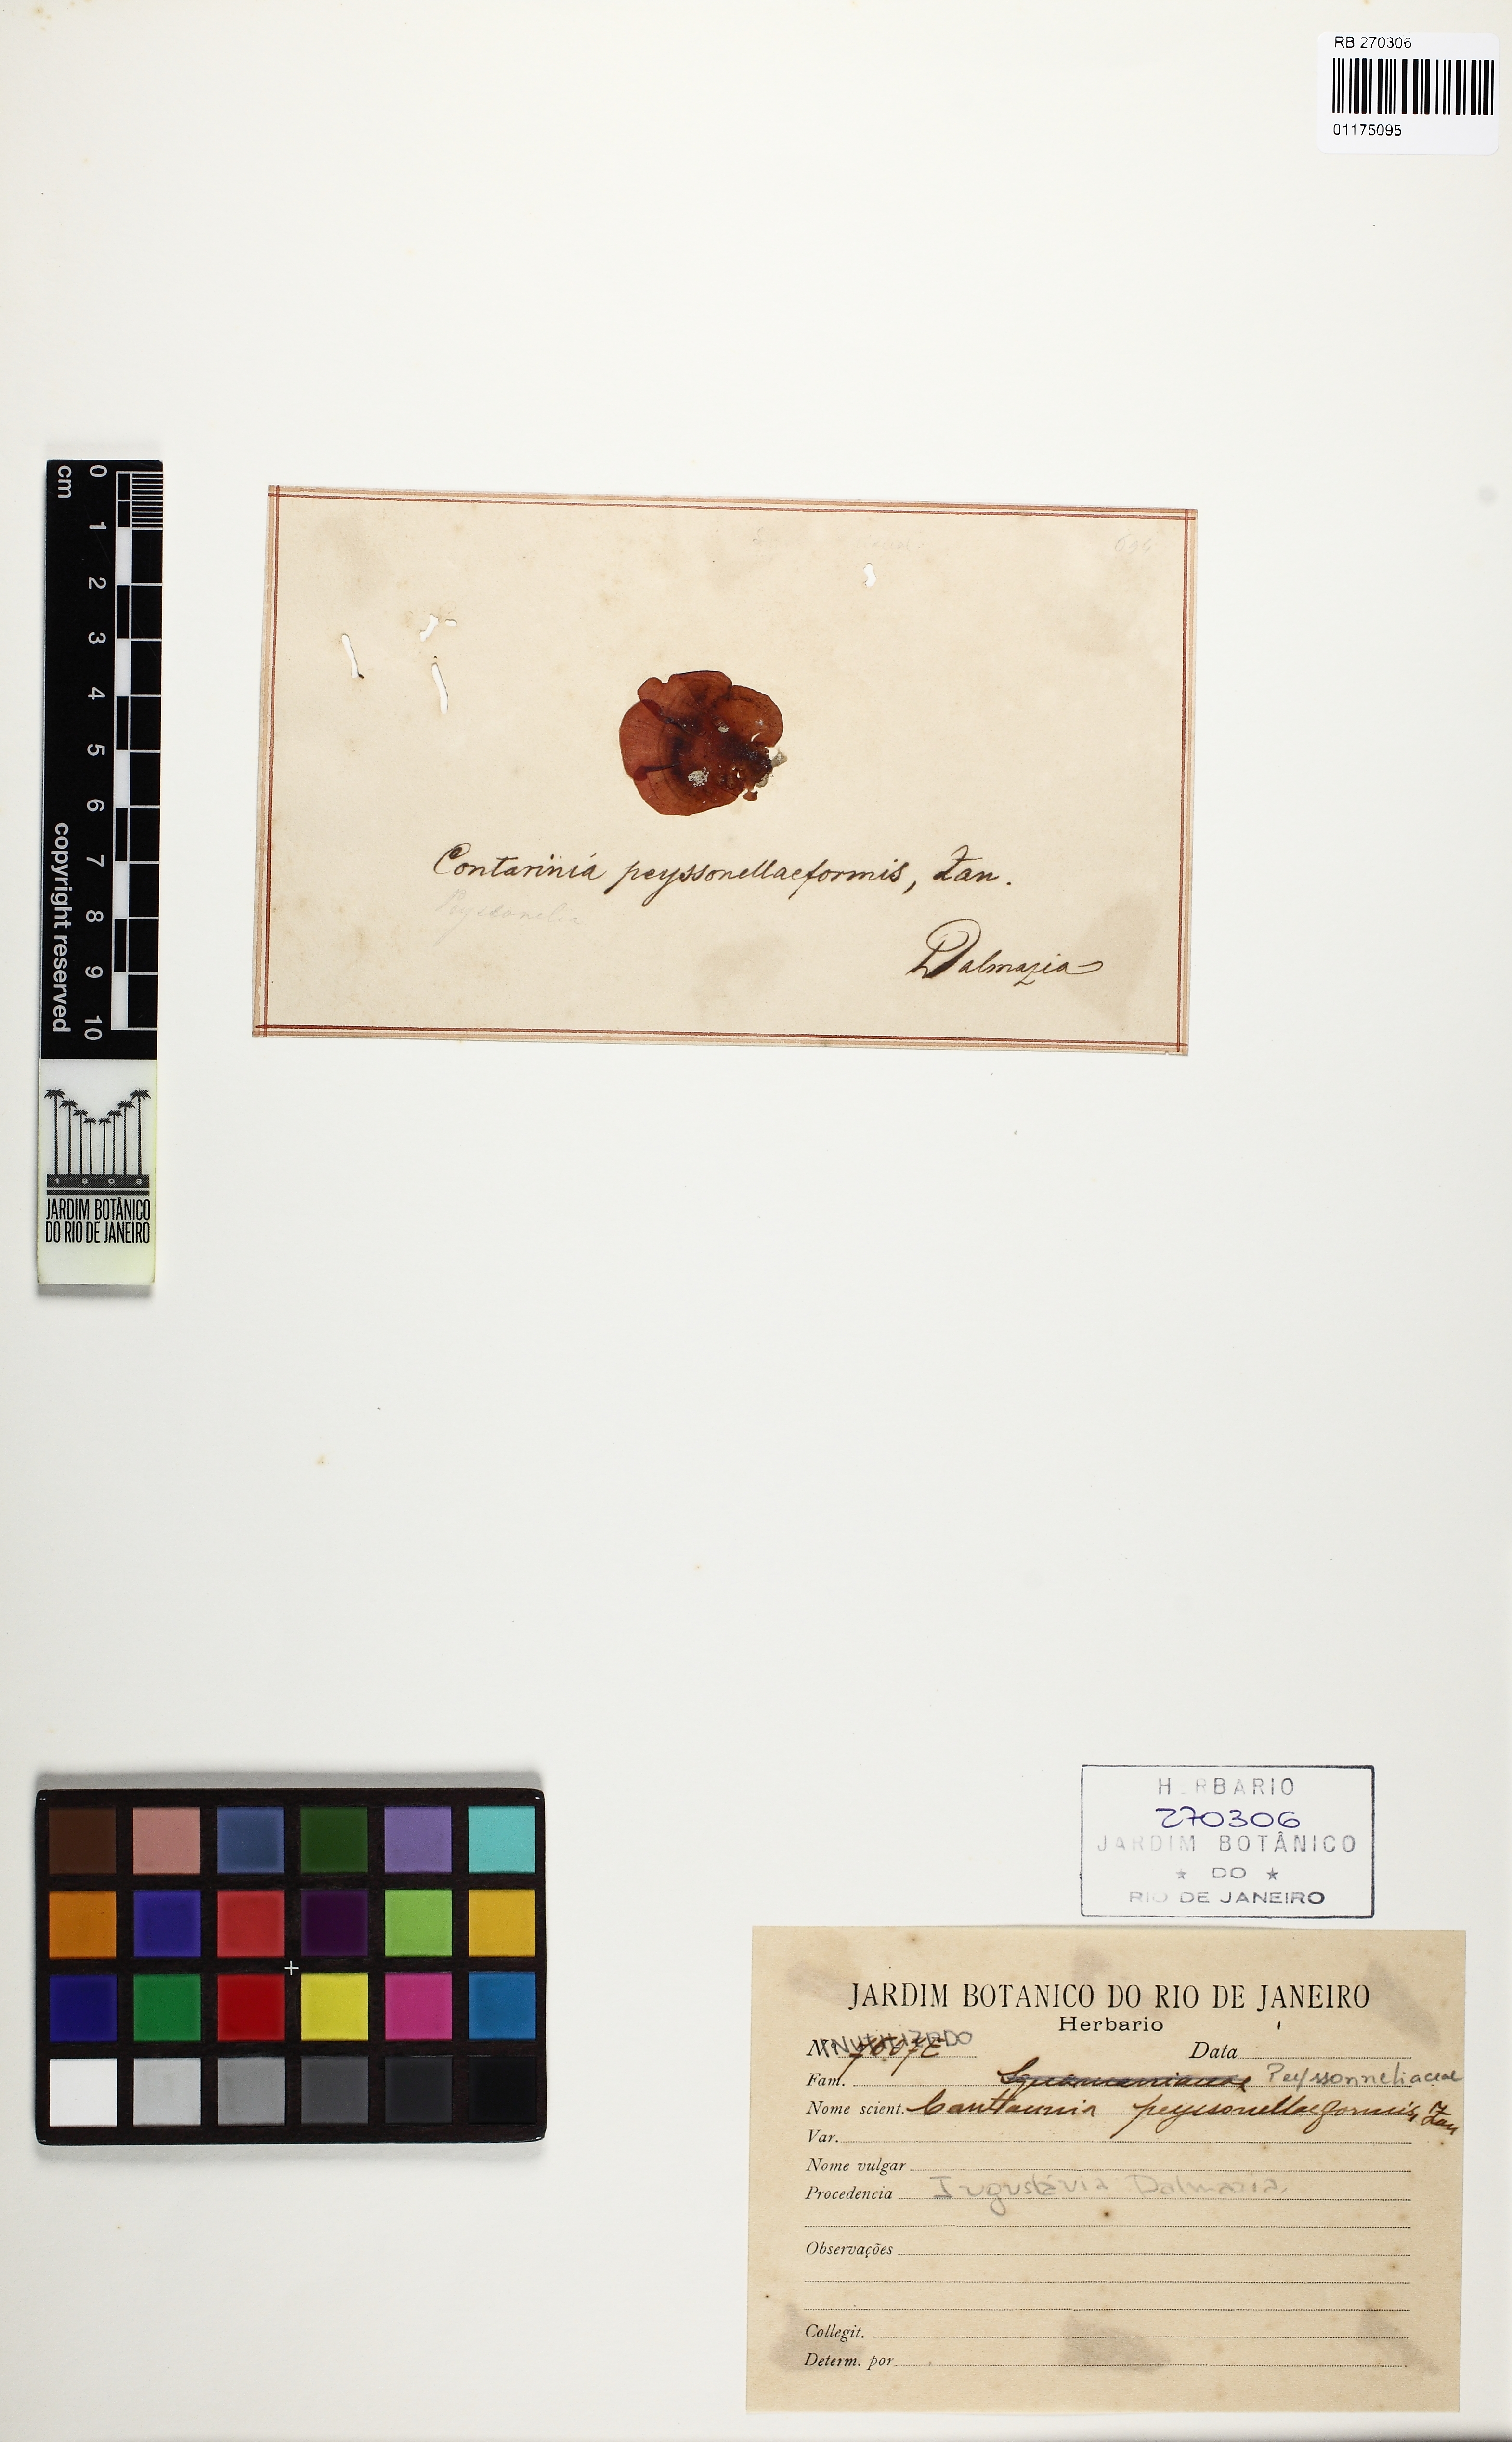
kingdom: Plantae
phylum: Rhodophyta
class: Florideophyceae
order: Gigartinales
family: Rhizophyllidaceae
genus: Contarinia
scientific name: Contarinia peyssonneliiformis
